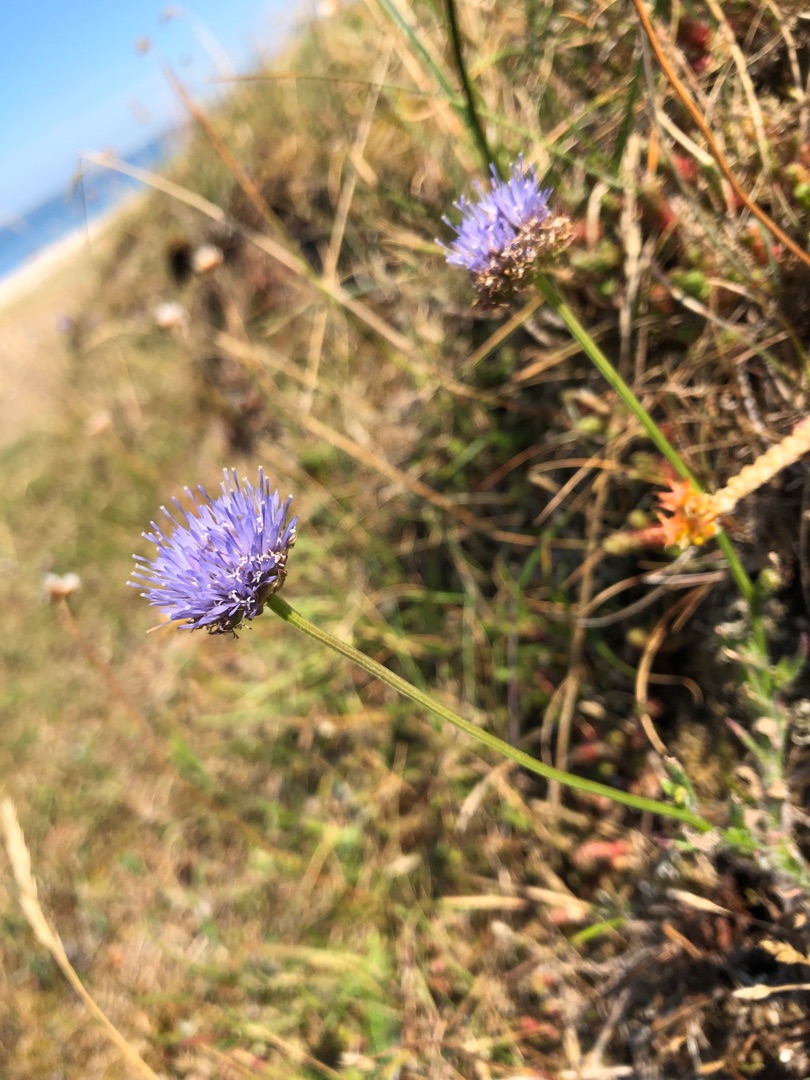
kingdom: Plantae
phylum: Tracheophyta
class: Magnoliopsida
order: Asterales
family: Campanulaceae
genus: Jasione
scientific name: Jasione montana
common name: Blåmunke
